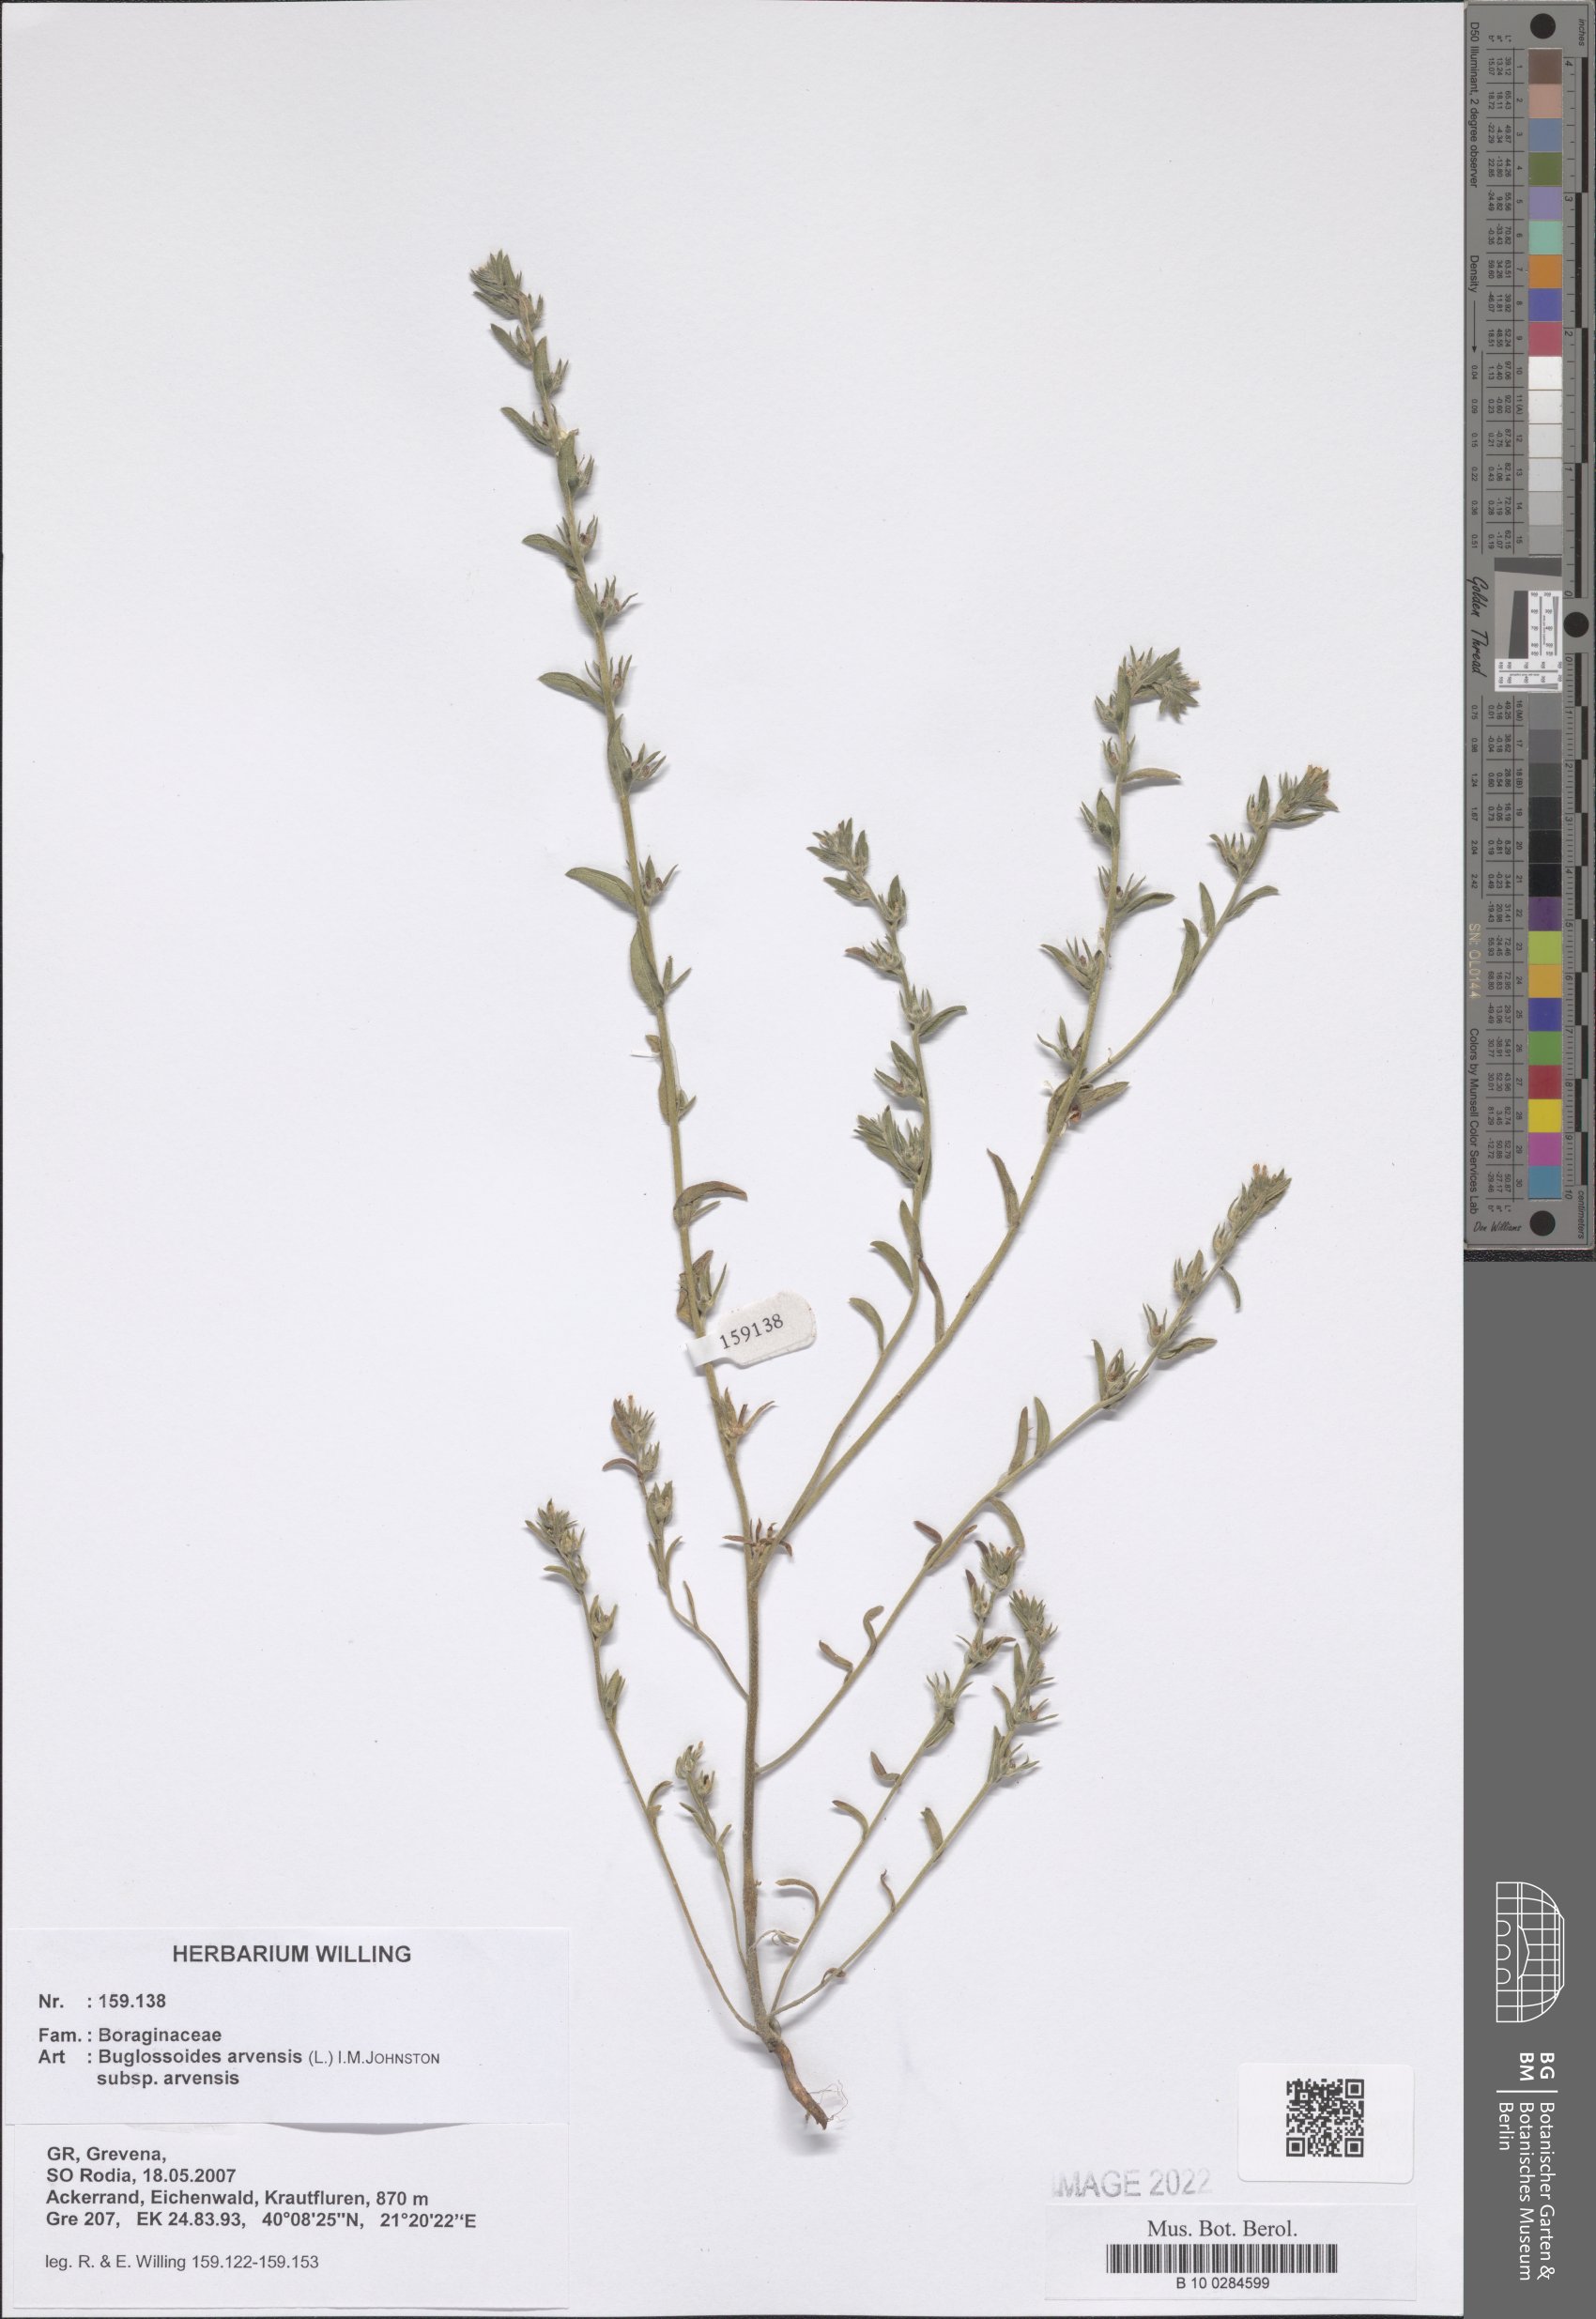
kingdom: Plantae
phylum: Tracheophyta
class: Magnoliopsida
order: Boraginales
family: Boraginaceae
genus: Buglossoides
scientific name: Buglossoides arvensis
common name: Corn gromwell
